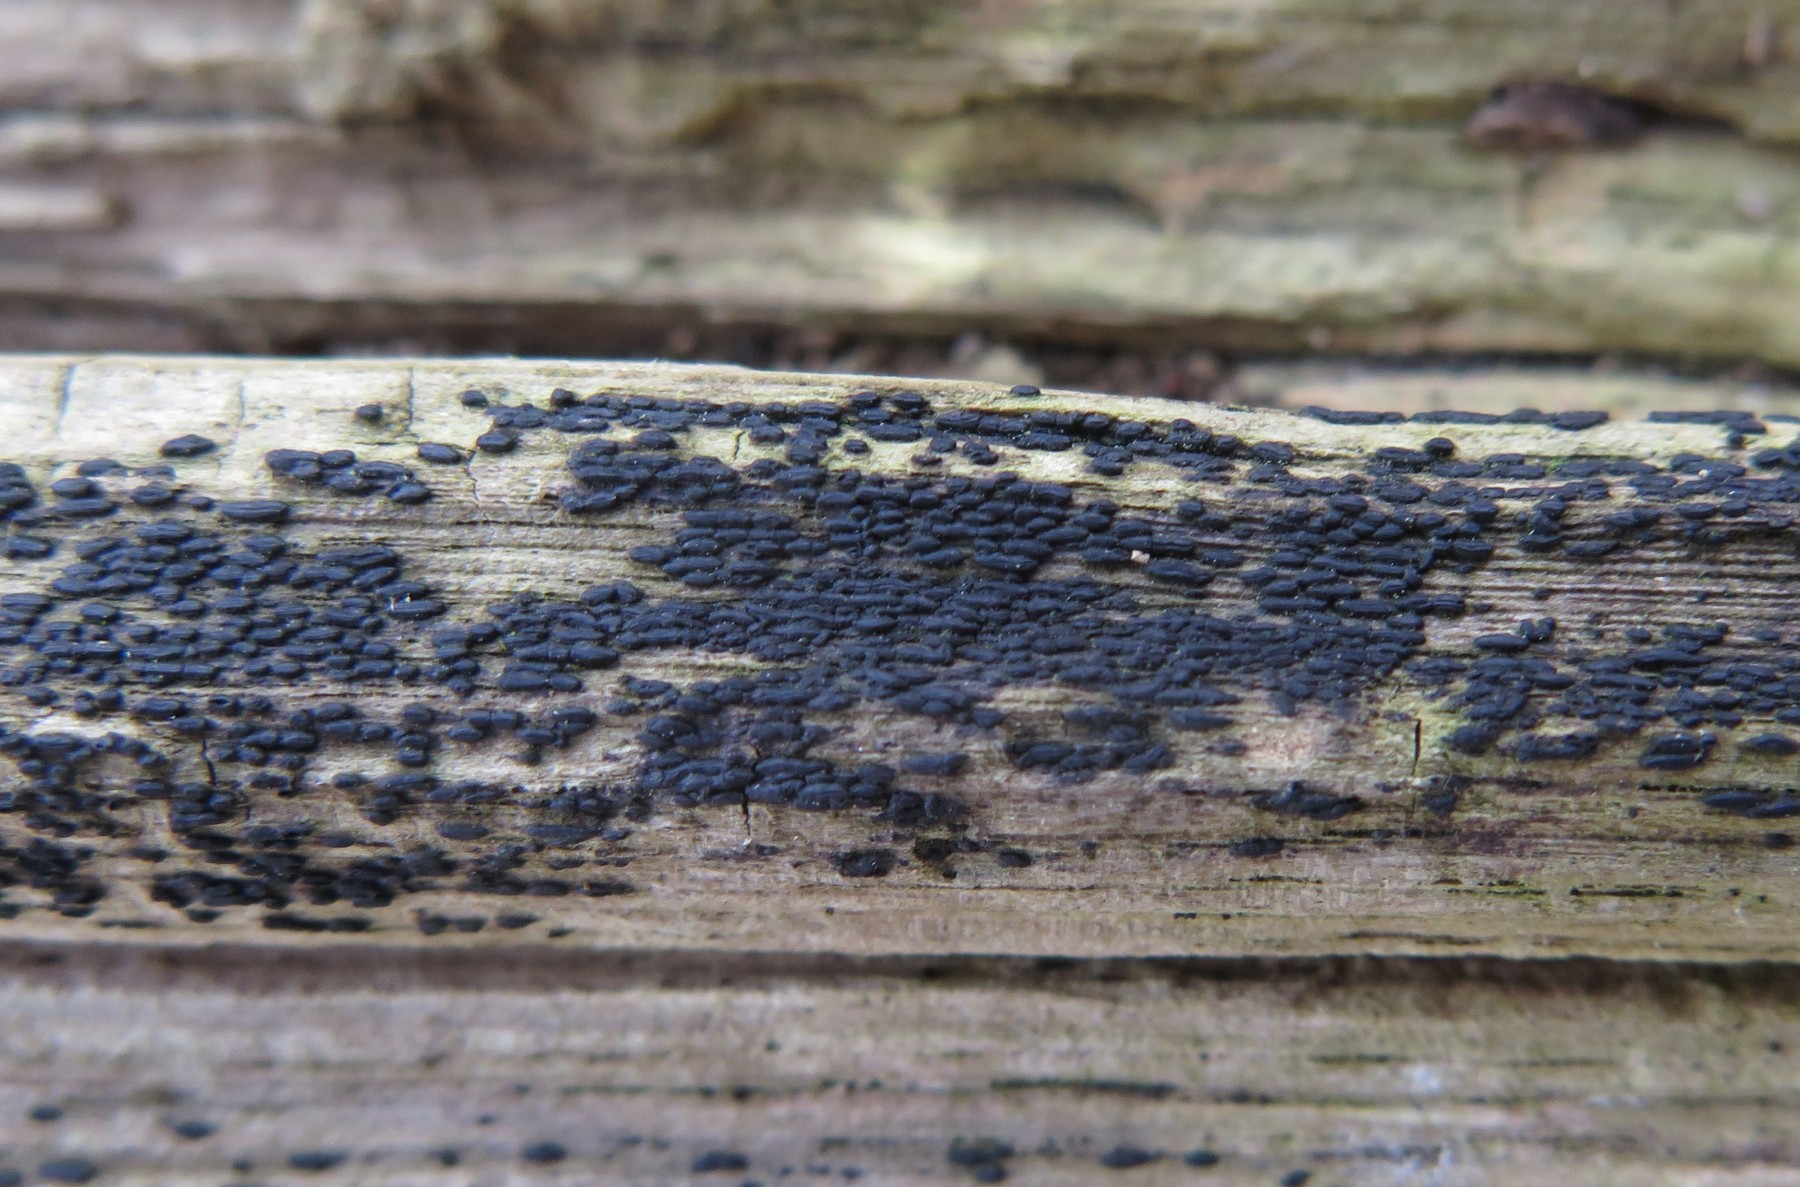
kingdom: Fungi
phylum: Ascomycota
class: Dothideomycetes
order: Hysteriales
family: Hysteriaceae
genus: Hysterium
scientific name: Hysterium pulicare
